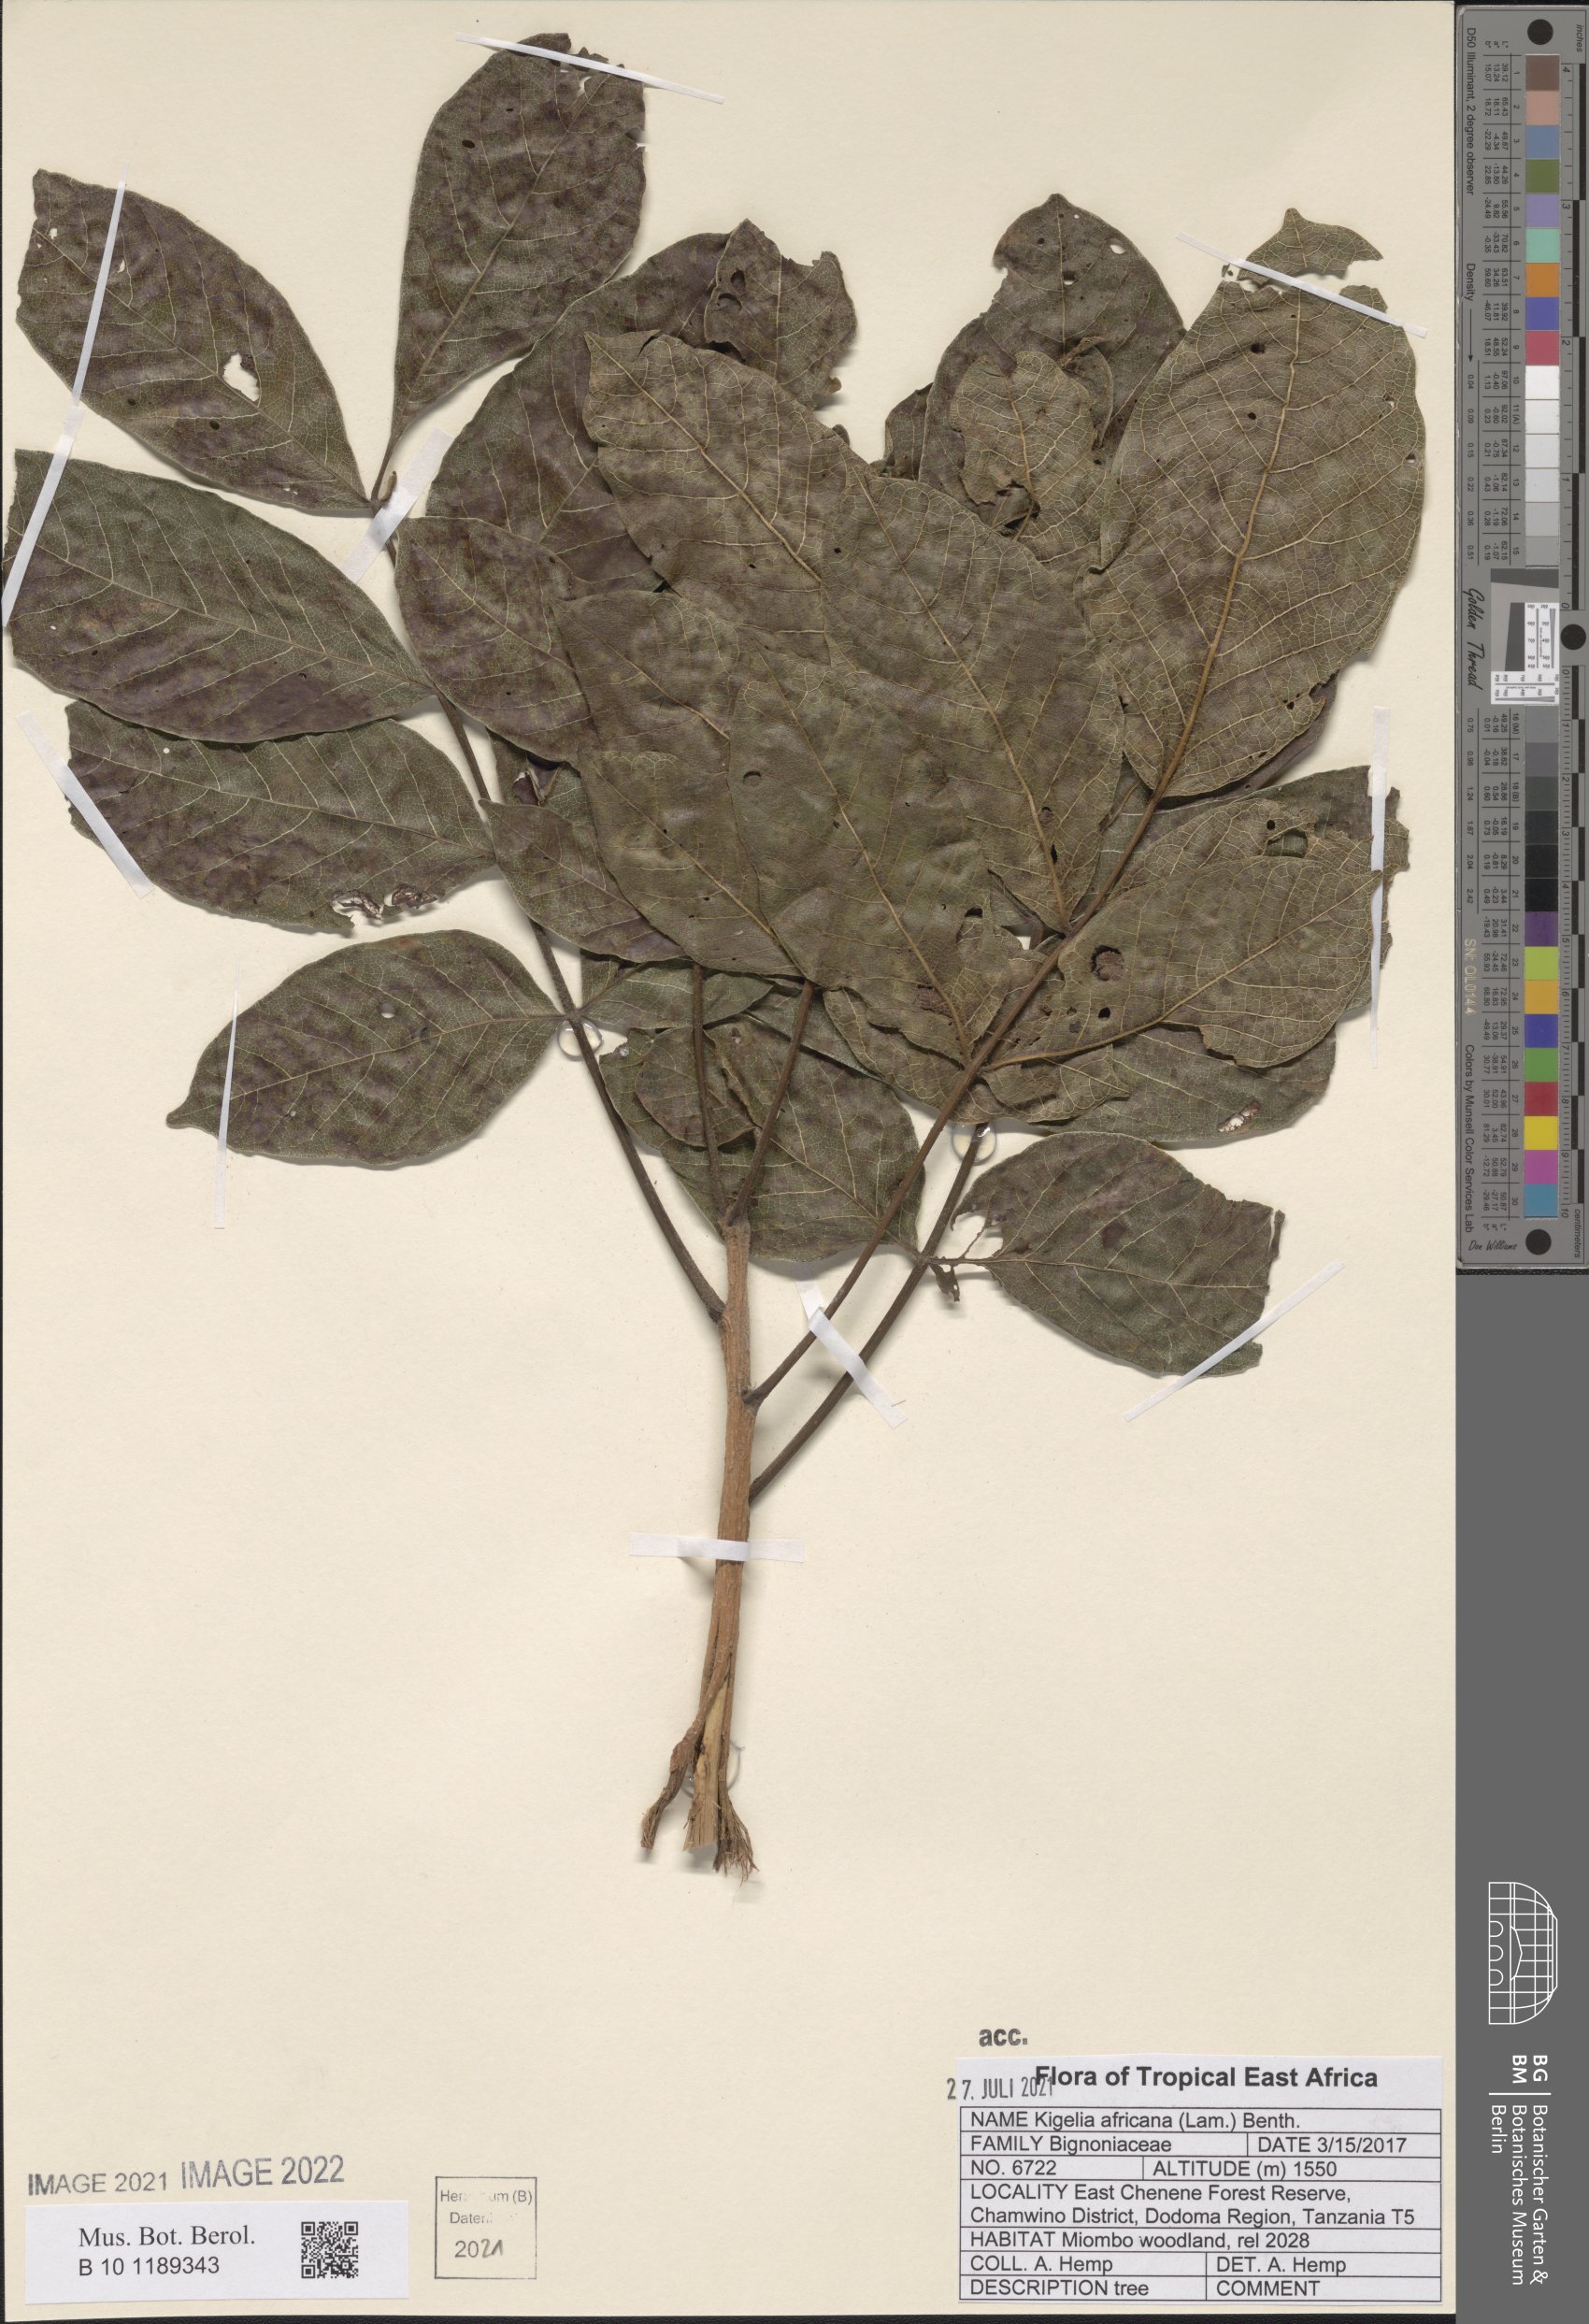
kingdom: Plantae
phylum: Tracheophyta
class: Magnoliopsida
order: Lamiales
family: Bignoniaceae
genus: Kigelia
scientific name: Kigelia africana
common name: Sausage tree
